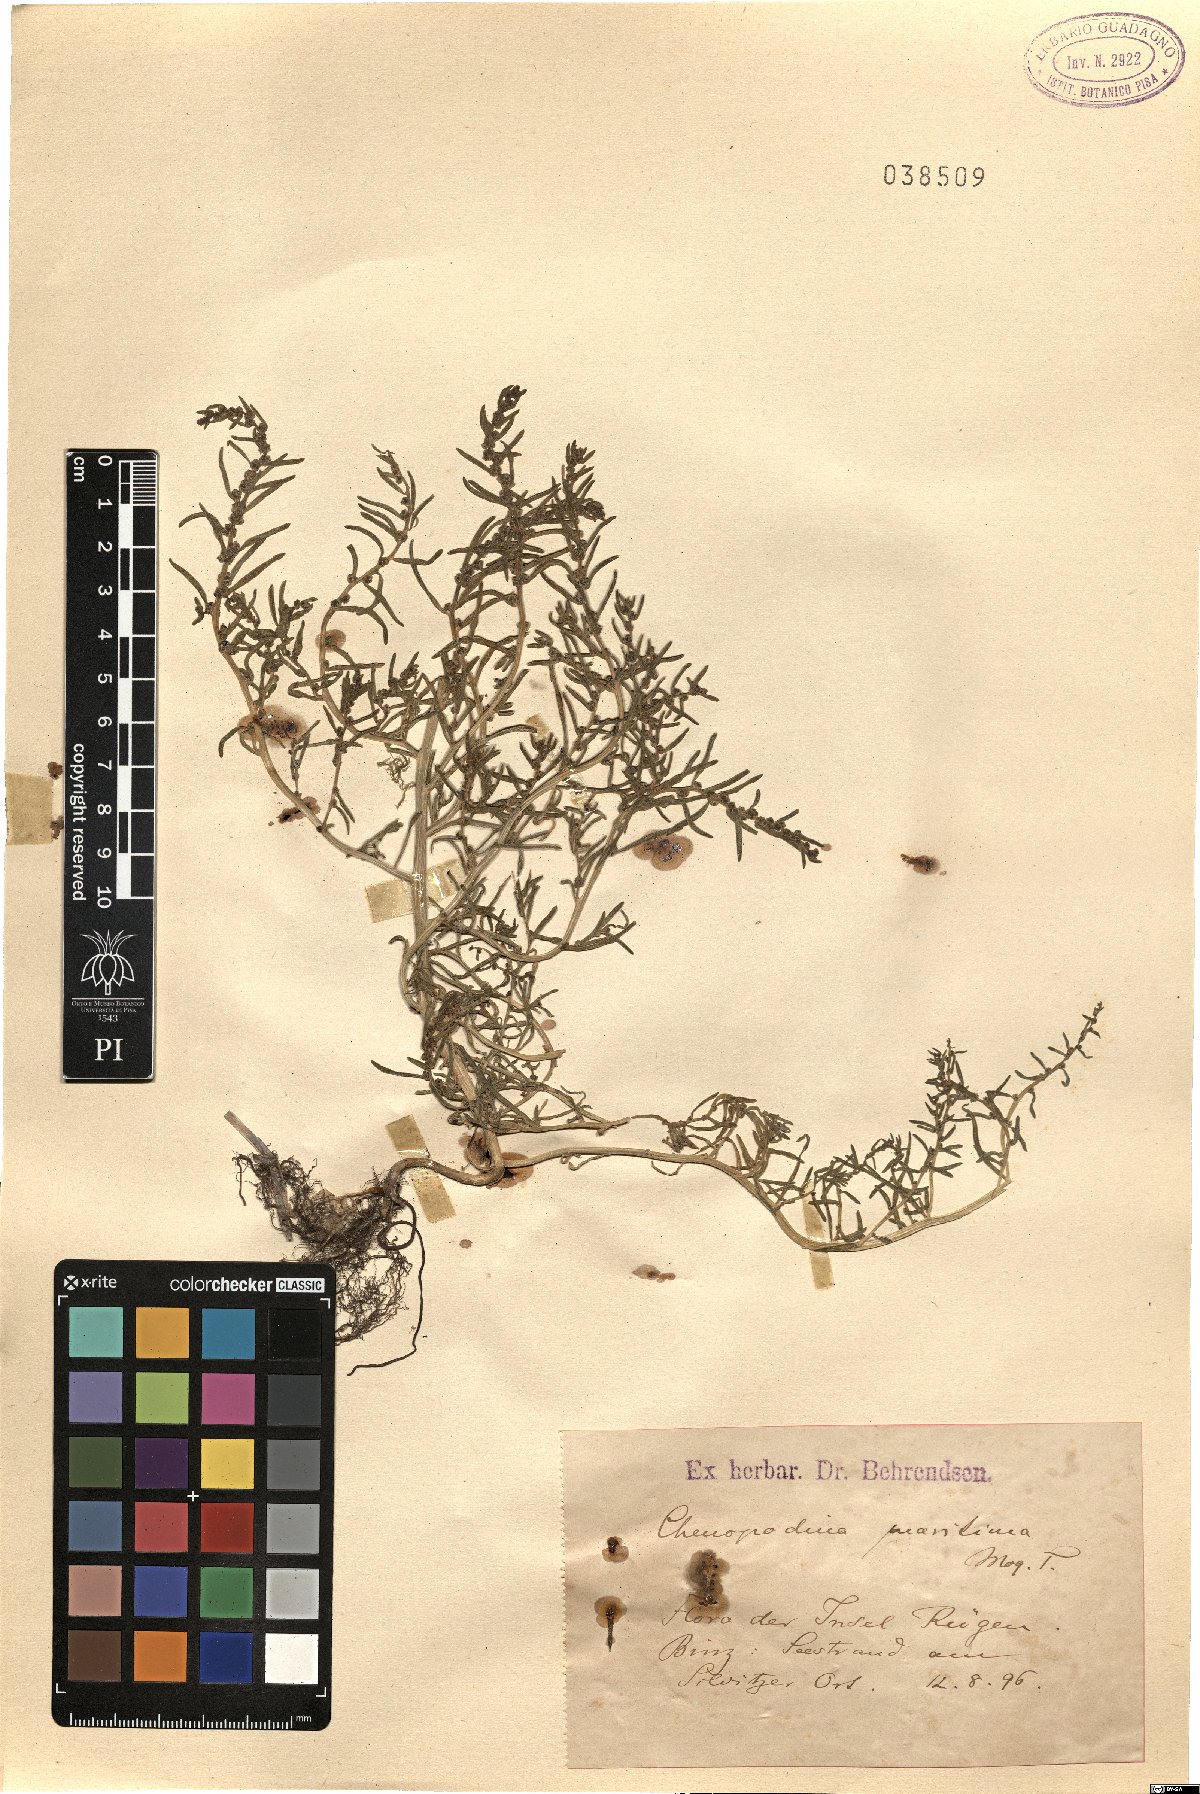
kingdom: Plantae
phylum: Tracheophyta
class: Magnoliopsida
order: Caryophyllales
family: Amaranthaceae
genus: Suaeda
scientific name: Suaeda maritima
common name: Annual sea-blite
